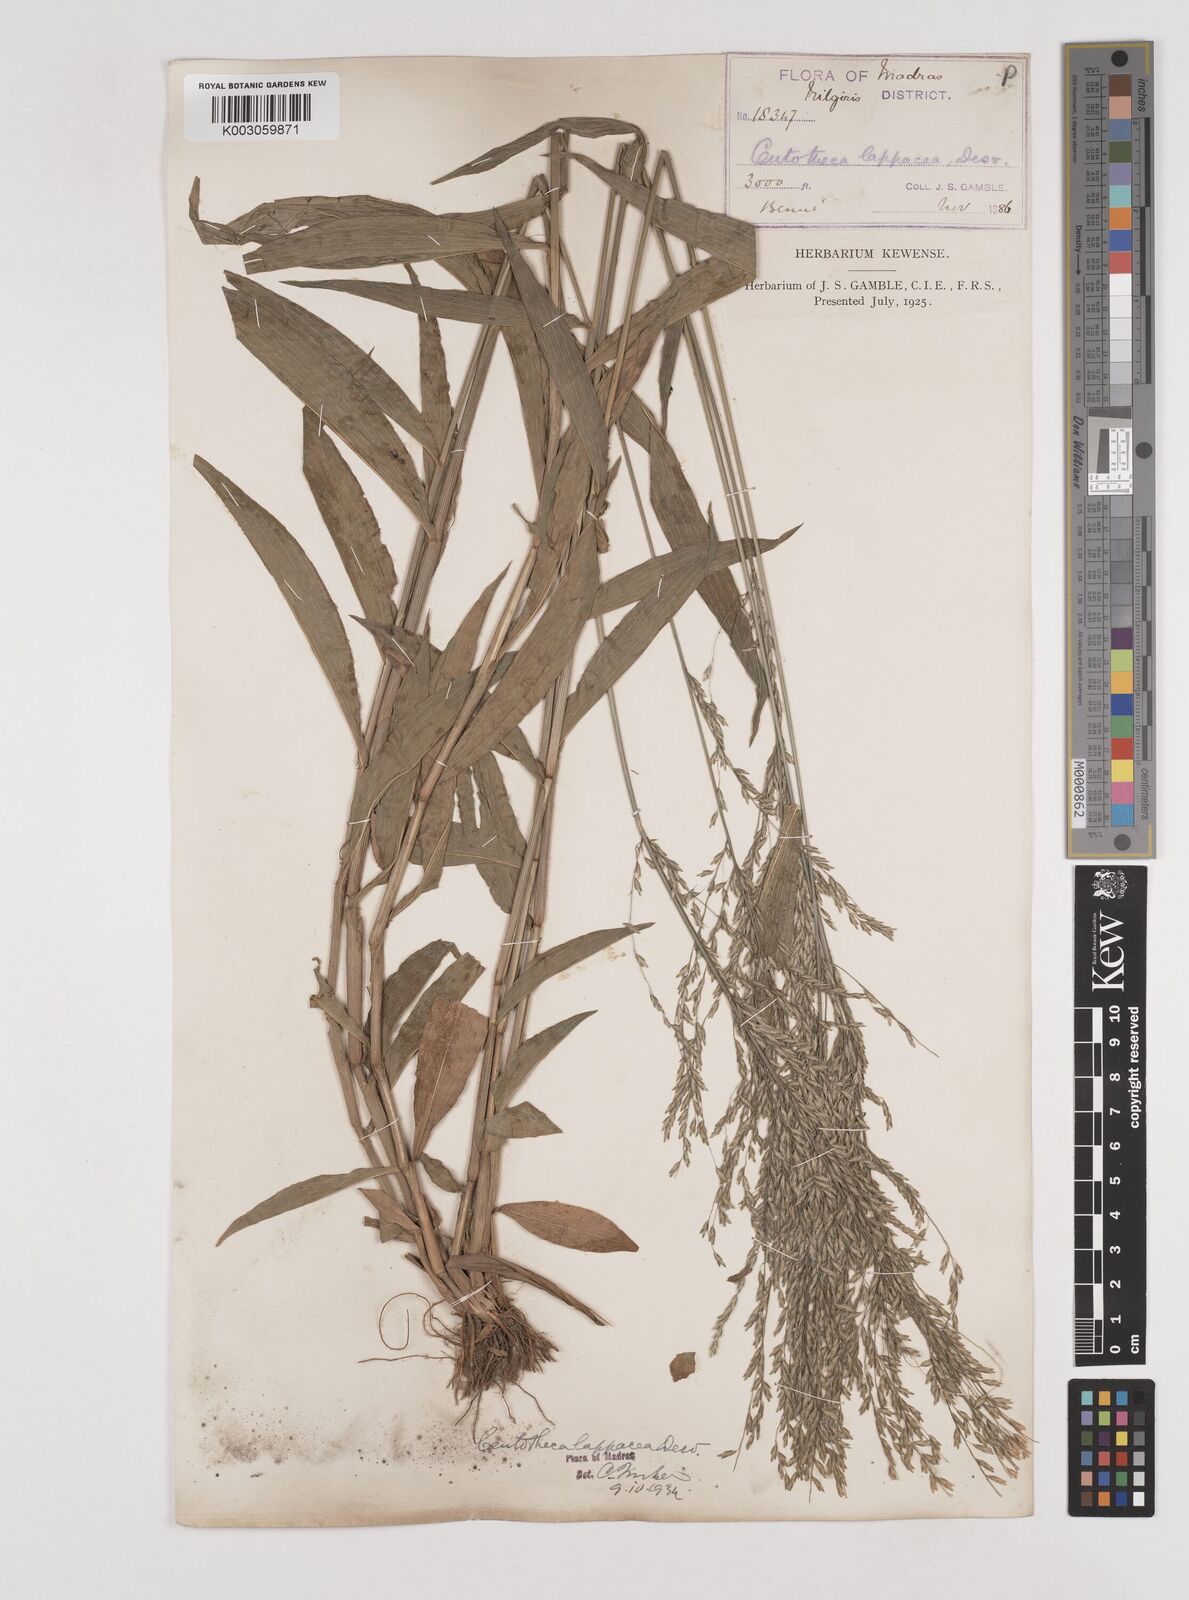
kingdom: Plantae
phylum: Tracheophyta
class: Liliopsida
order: Poales
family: Poaceae
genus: Centotheca
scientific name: Centotheca lappacea
